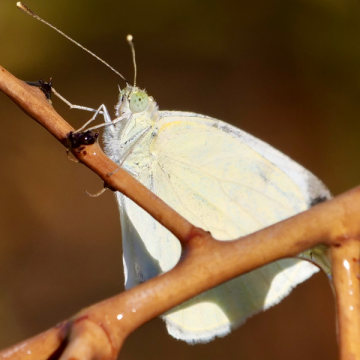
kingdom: Animalia
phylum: Arthropoda
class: Insecta
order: Lepidoptera
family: Pieridae
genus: Ascia
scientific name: Ascia monuste
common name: Great Southern White
